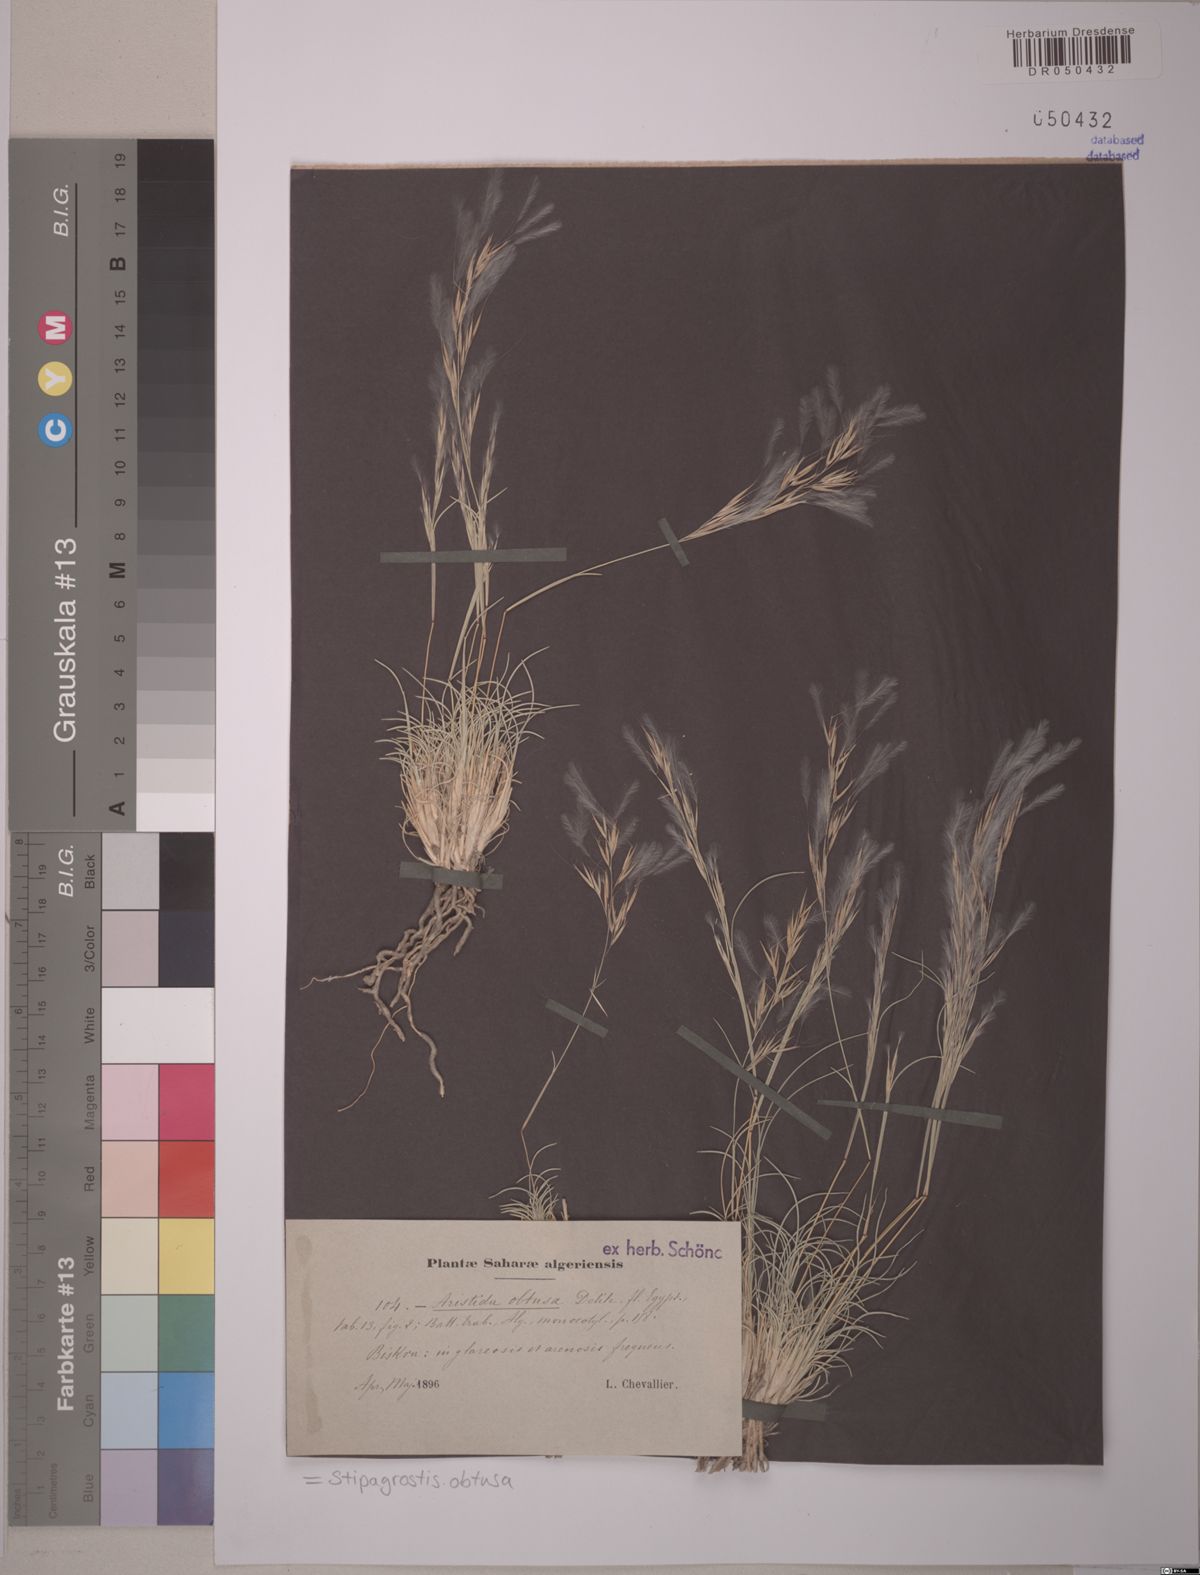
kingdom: Plantae
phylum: Tracheophyta
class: Liliopsida
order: Poales
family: Poaceae
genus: Stipagrostis
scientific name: Stipagrostis obtusa
